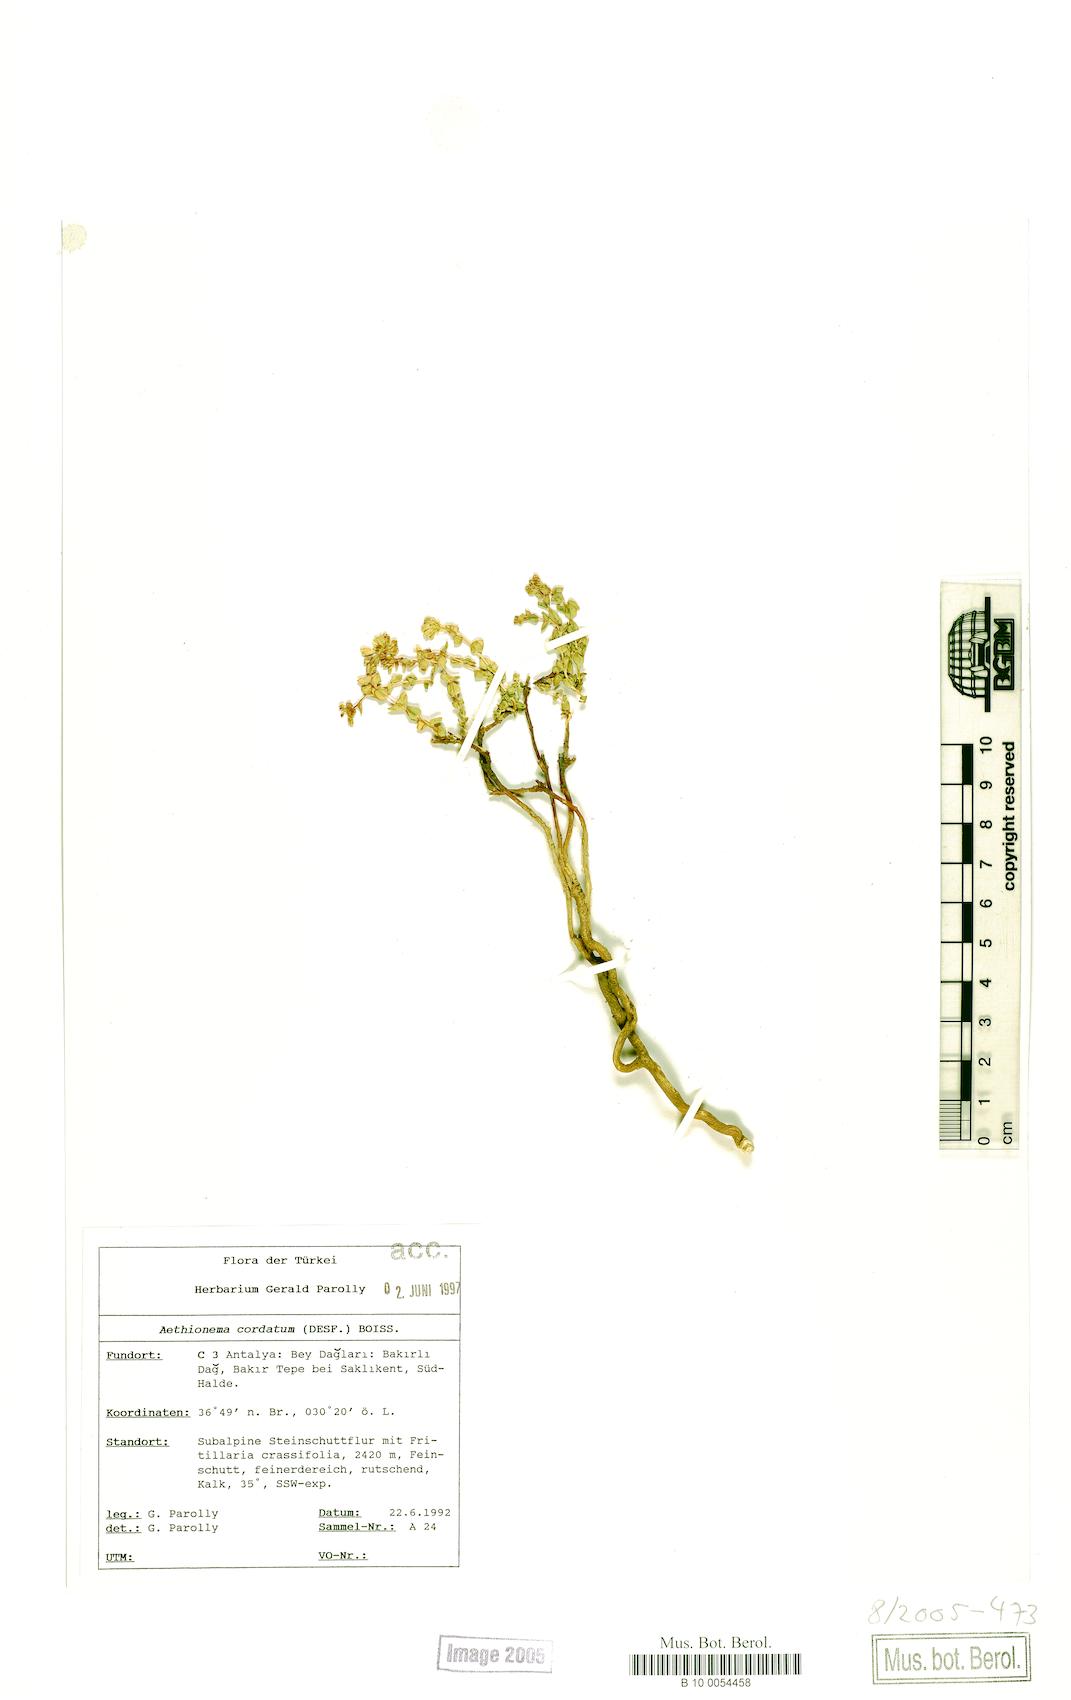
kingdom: Plantae
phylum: Tracheophyta
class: Magnoliopsida
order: Brassicales
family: Brassicaceae
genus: Aethionema
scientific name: Aethionema cordatum
